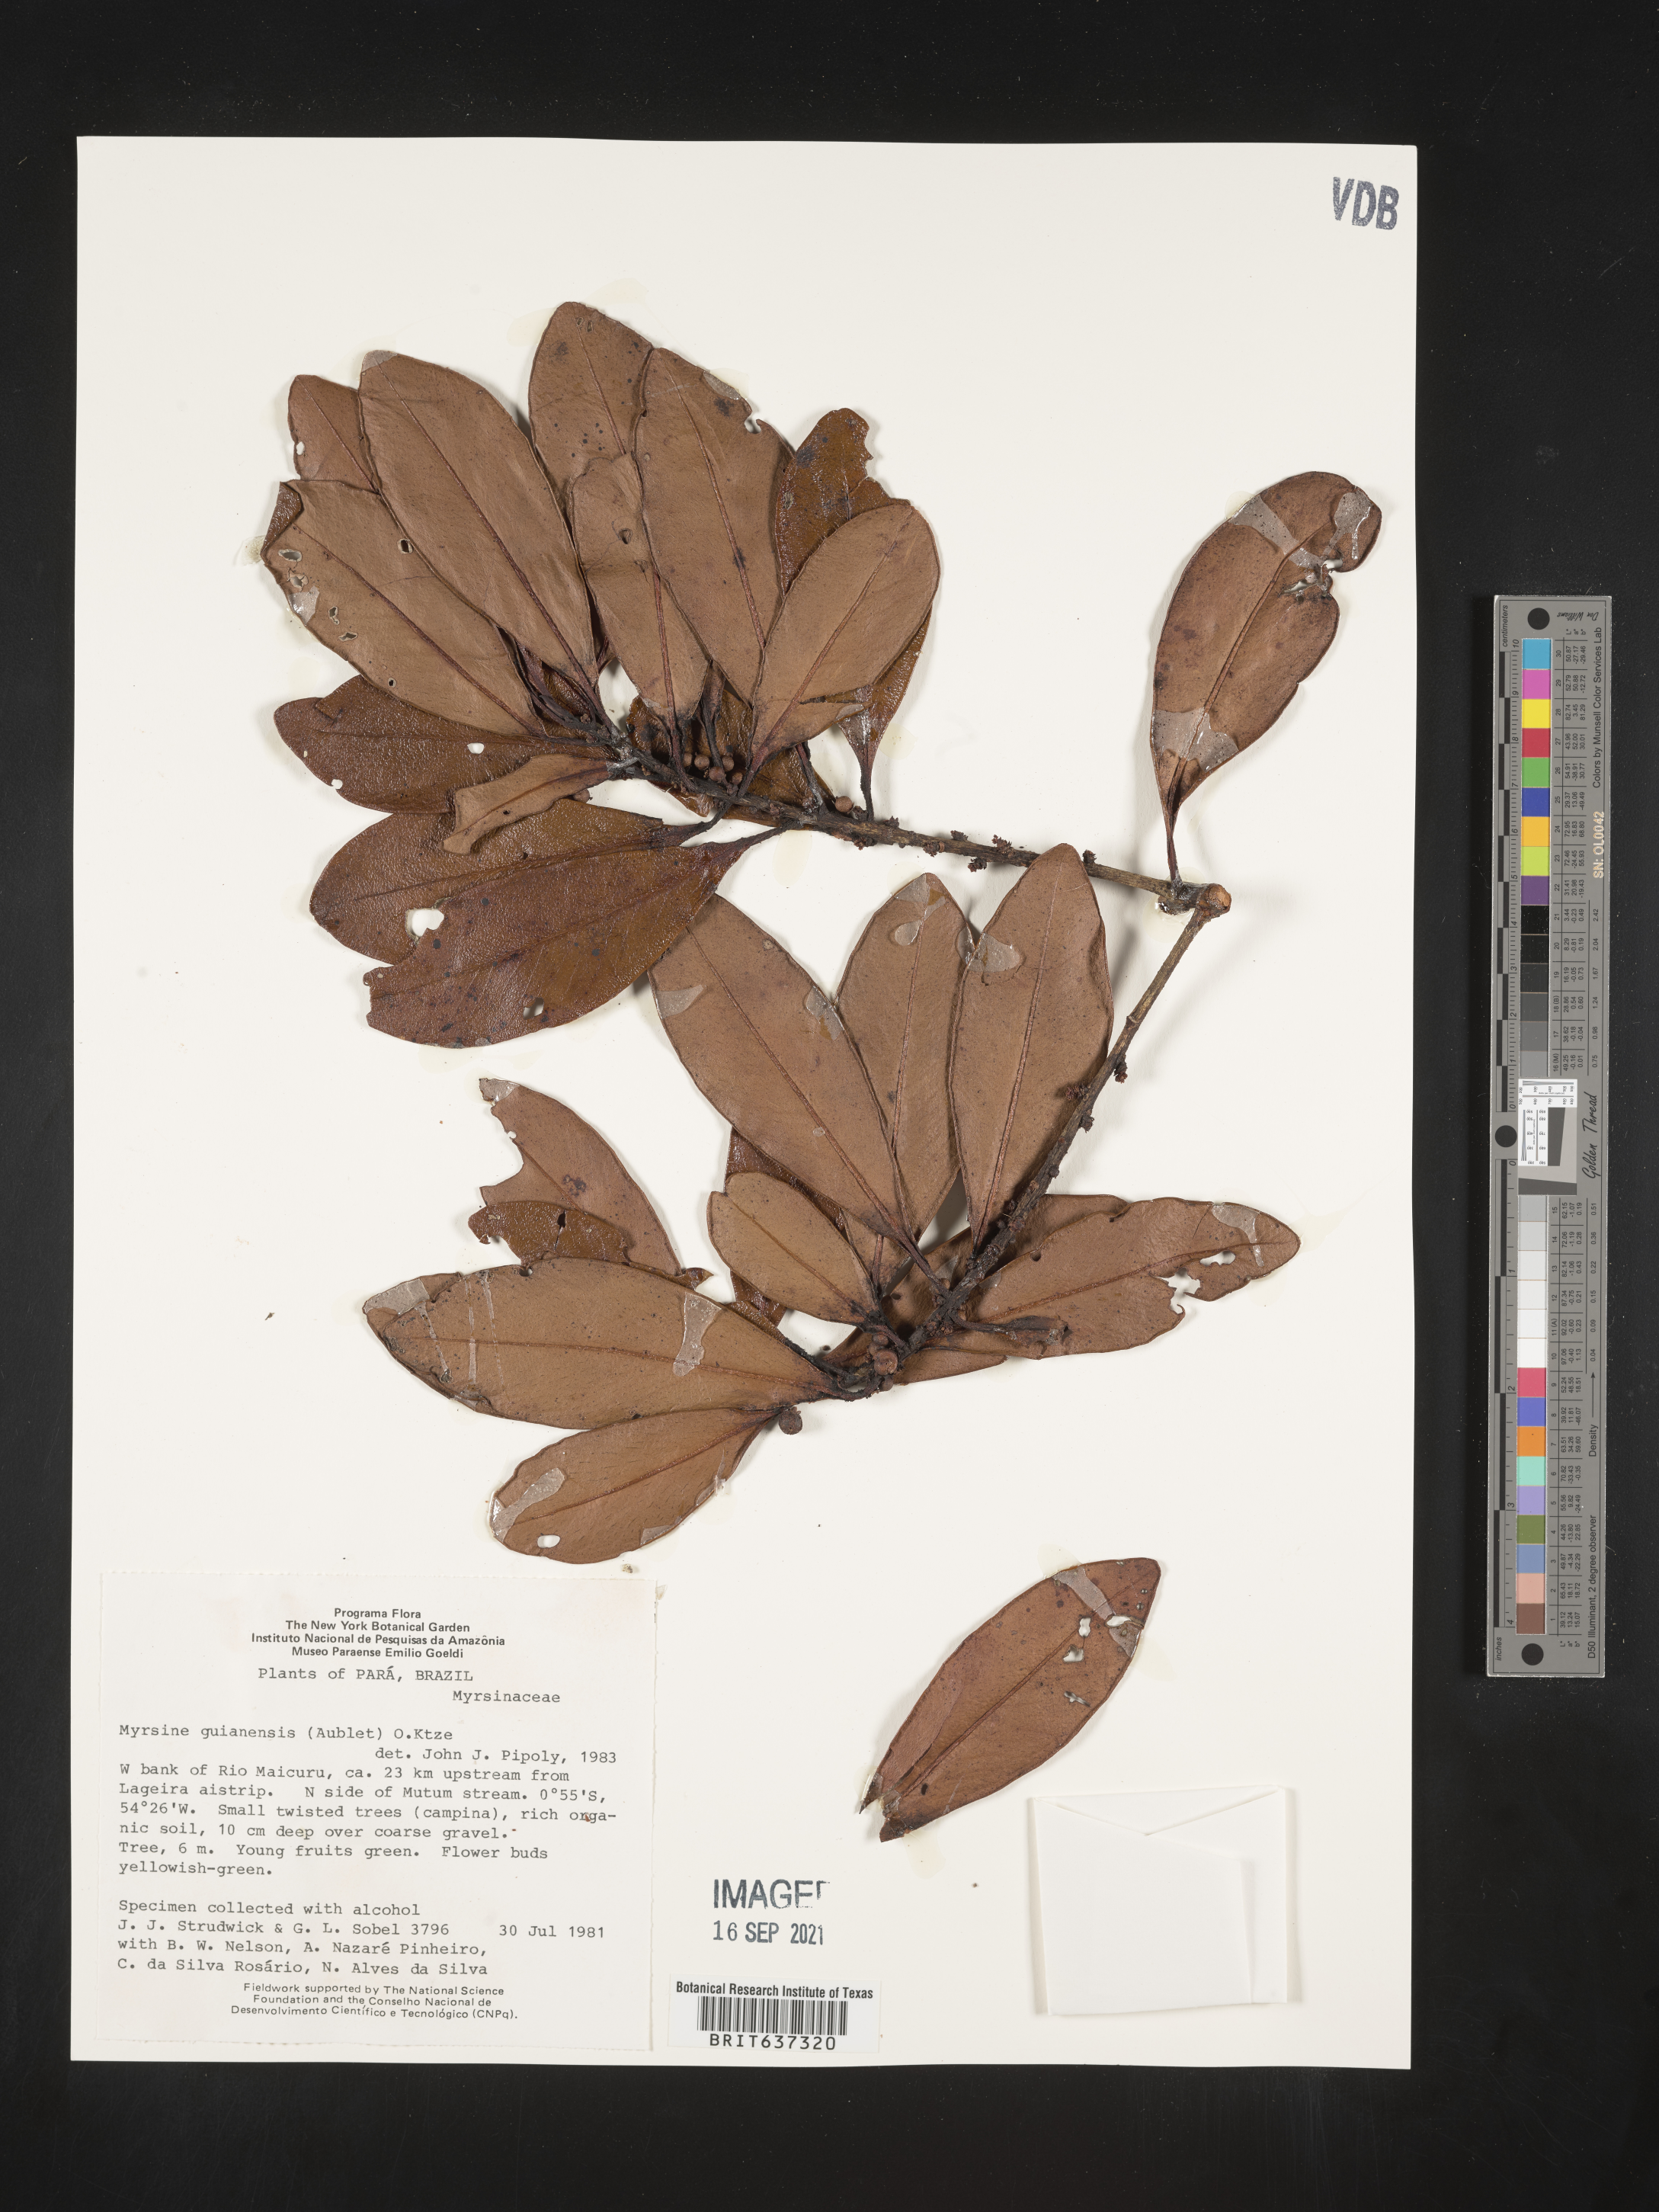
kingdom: Plantae
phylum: Tracheophyta
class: Magnoliopsida
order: Ericales
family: Primulaceae
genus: Myrsine
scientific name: Myrsine
